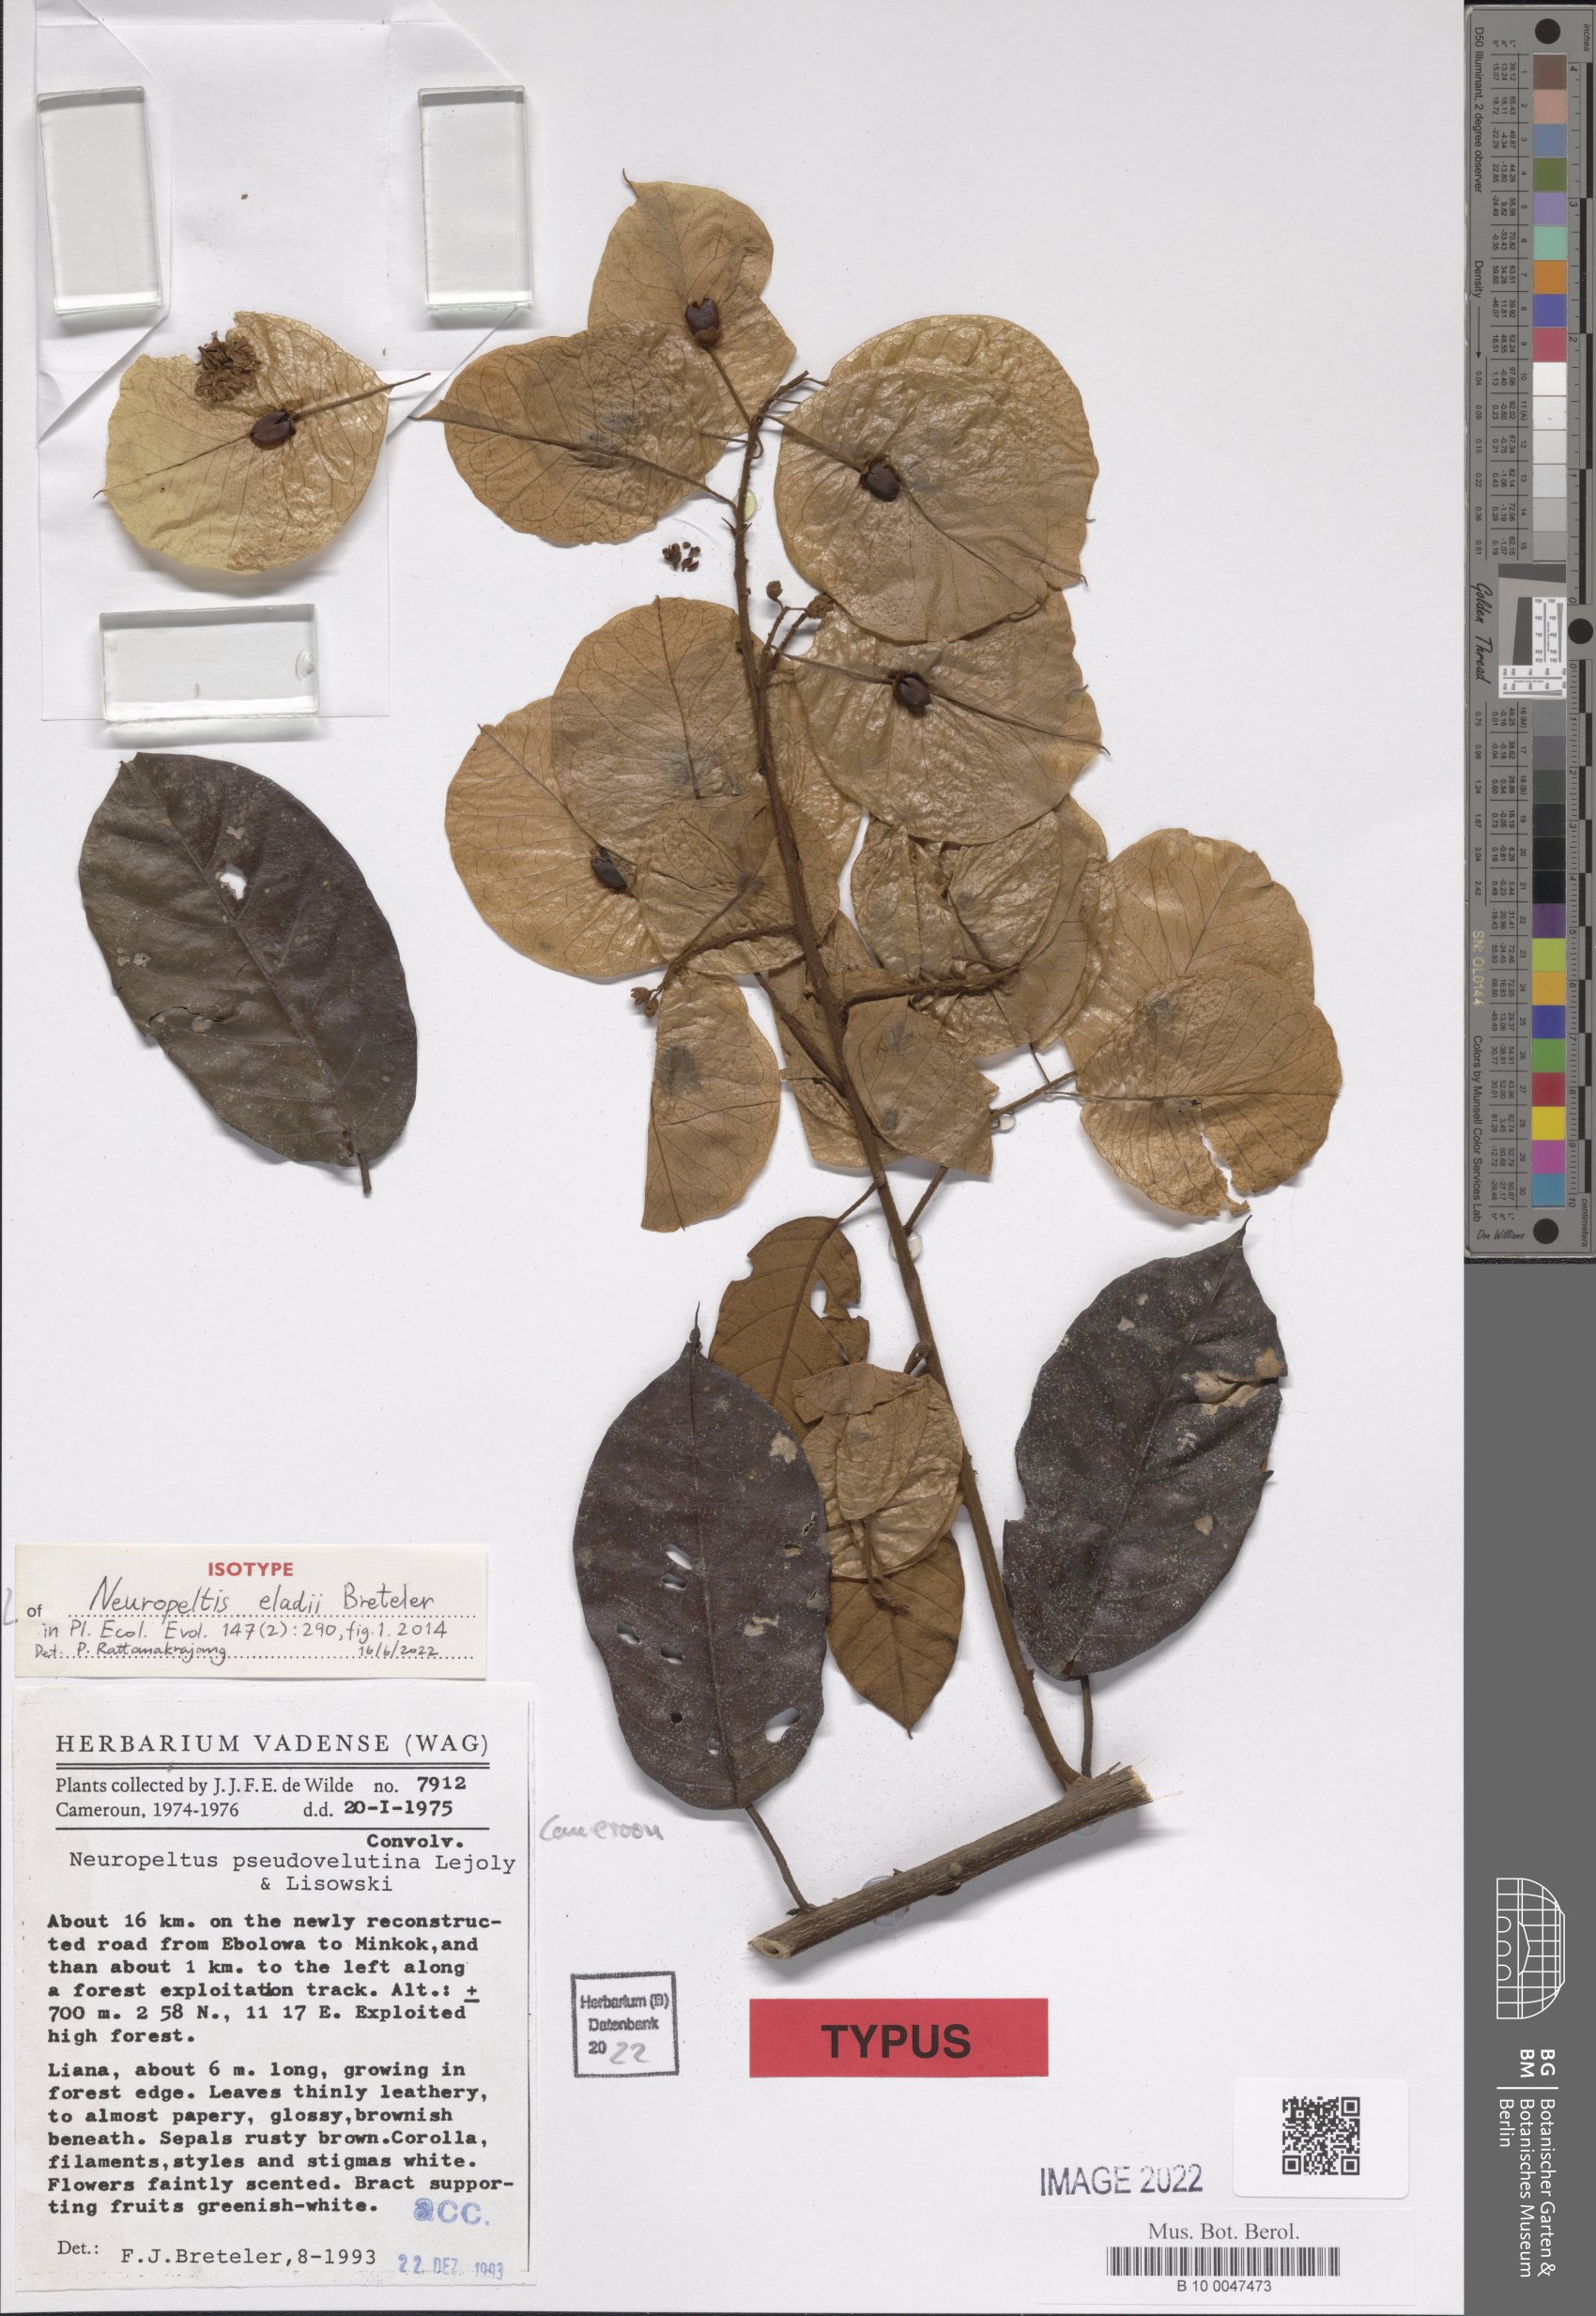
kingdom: Plantae
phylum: Tracheophyta
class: Magnoliopsida
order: Solanales
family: Convolvulaceae
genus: Neuropeltis
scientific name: Neuropeltis eladii
